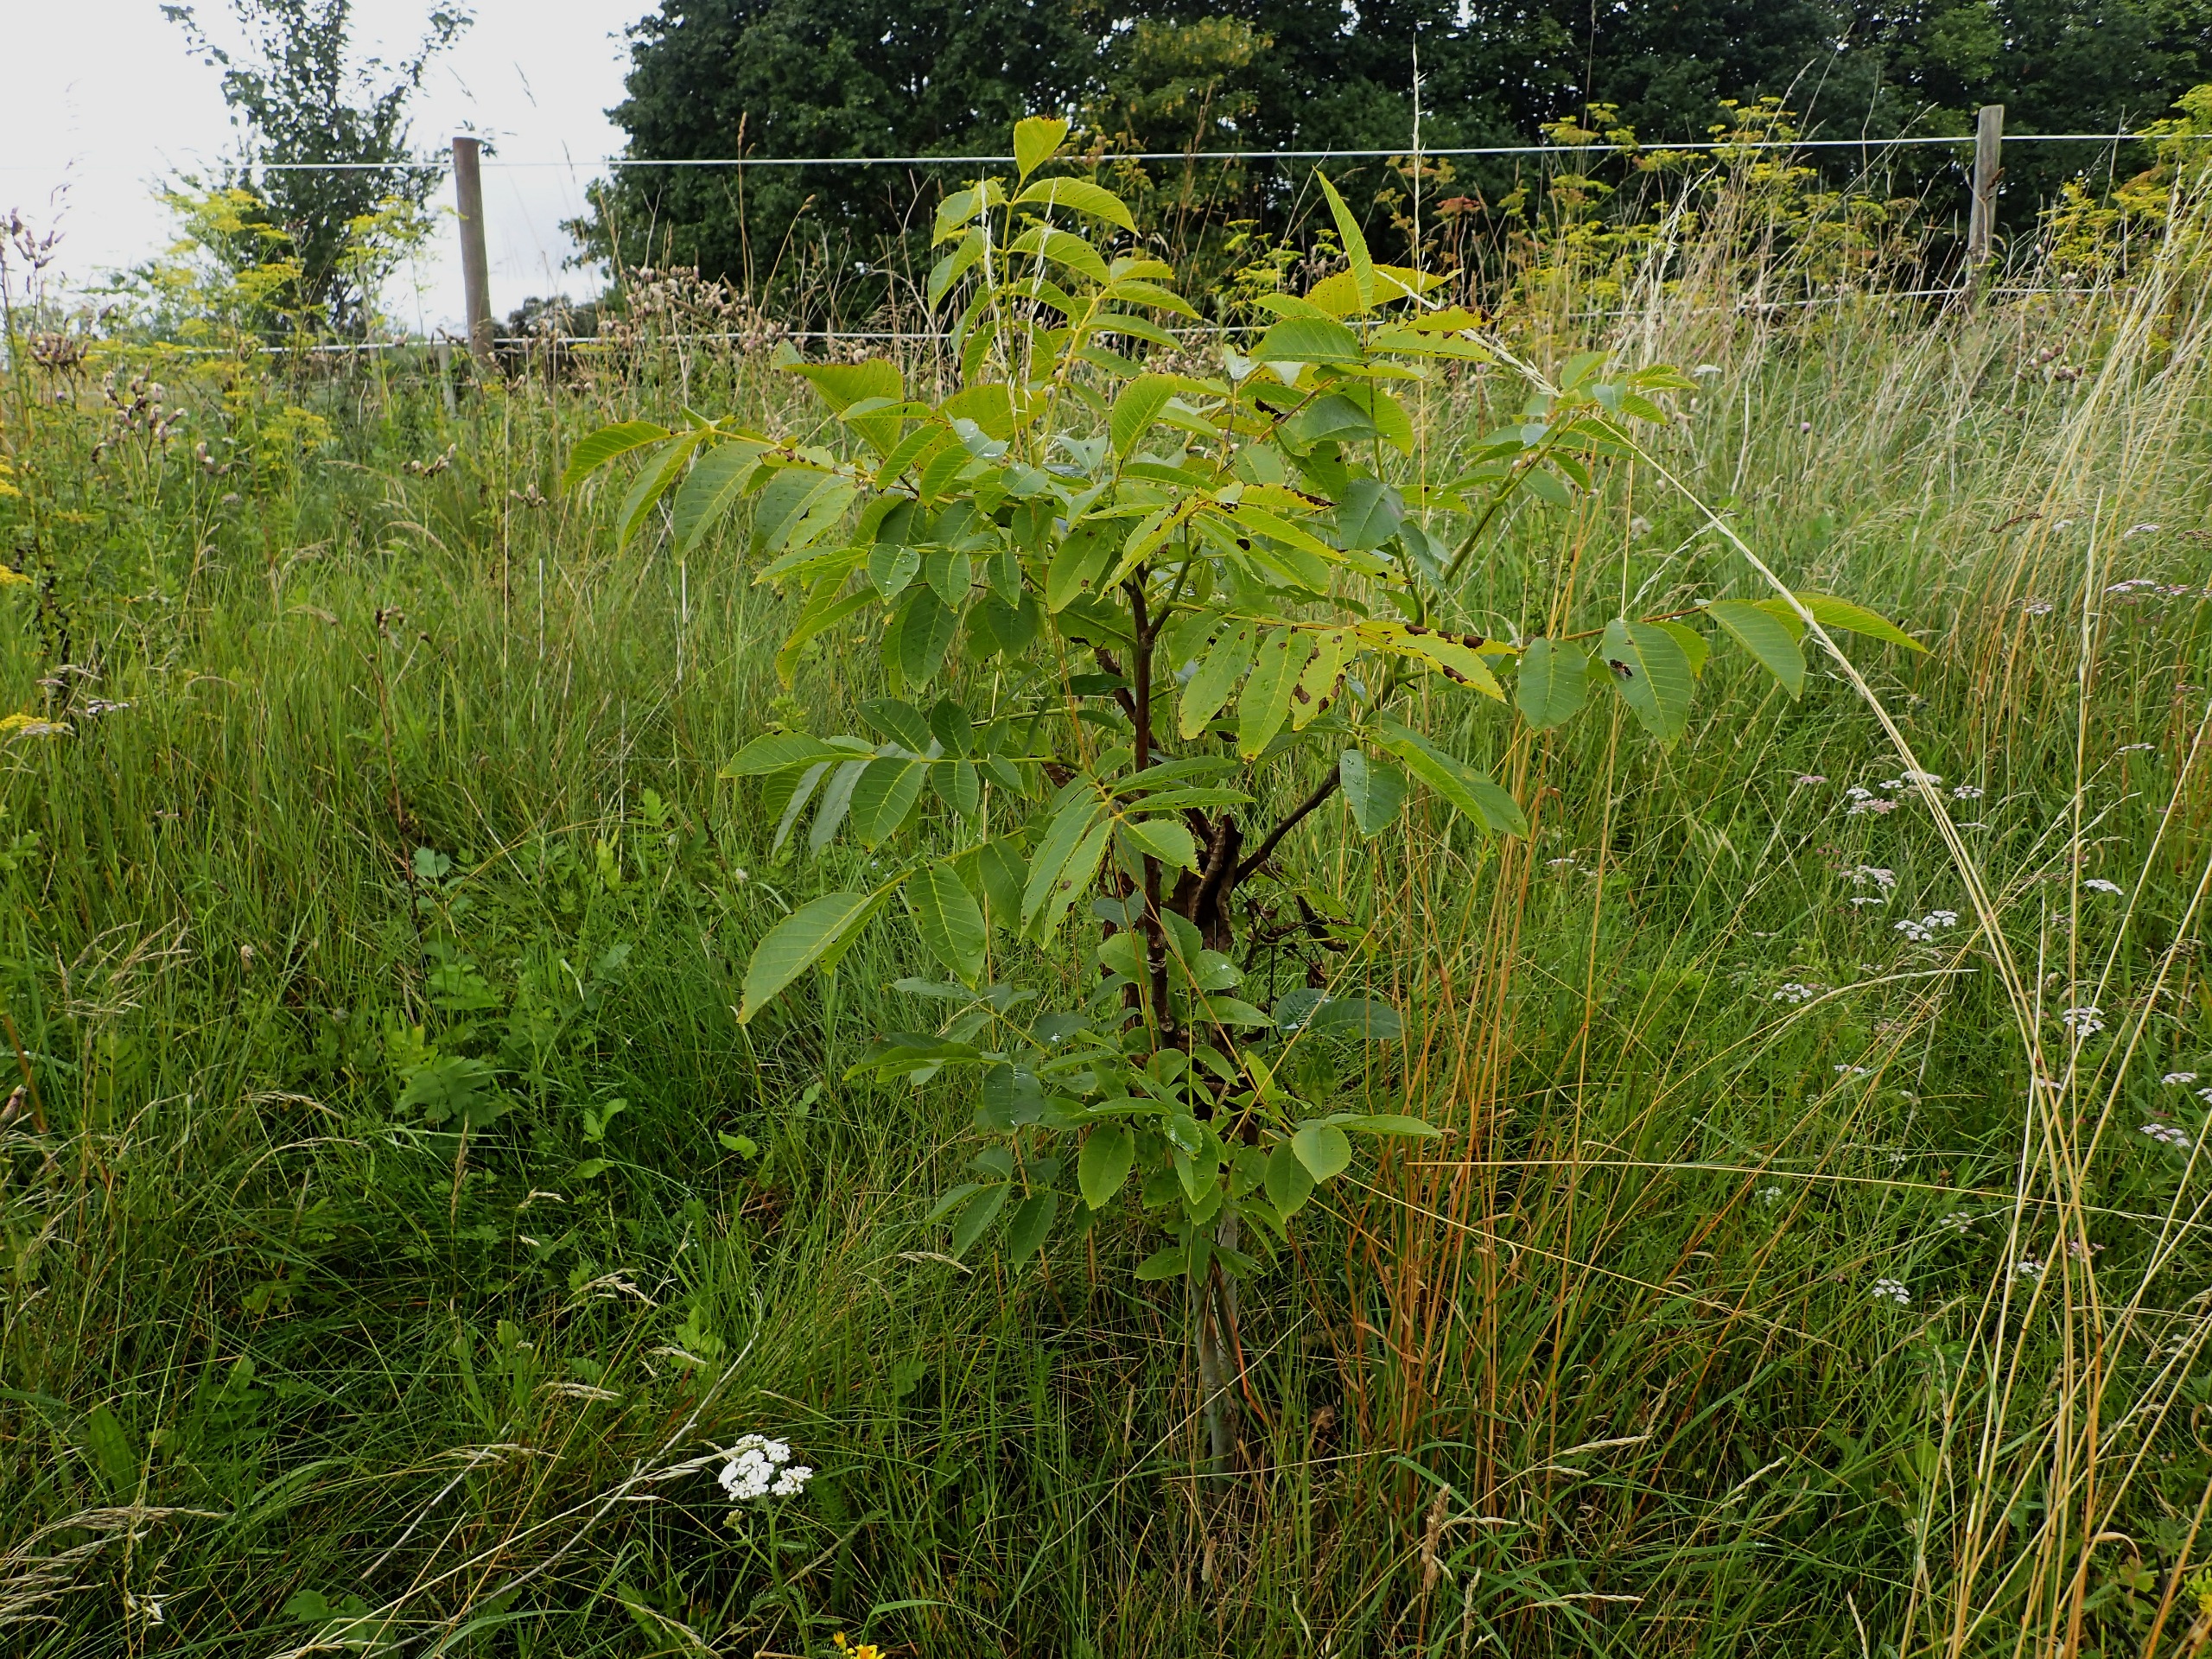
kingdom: Plantae
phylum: Tracheophyta
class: Magnoliopsida
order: Fagales
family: Juglandaceae
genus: Juglans
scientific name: Juglans regia
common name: Almindelig valnød
